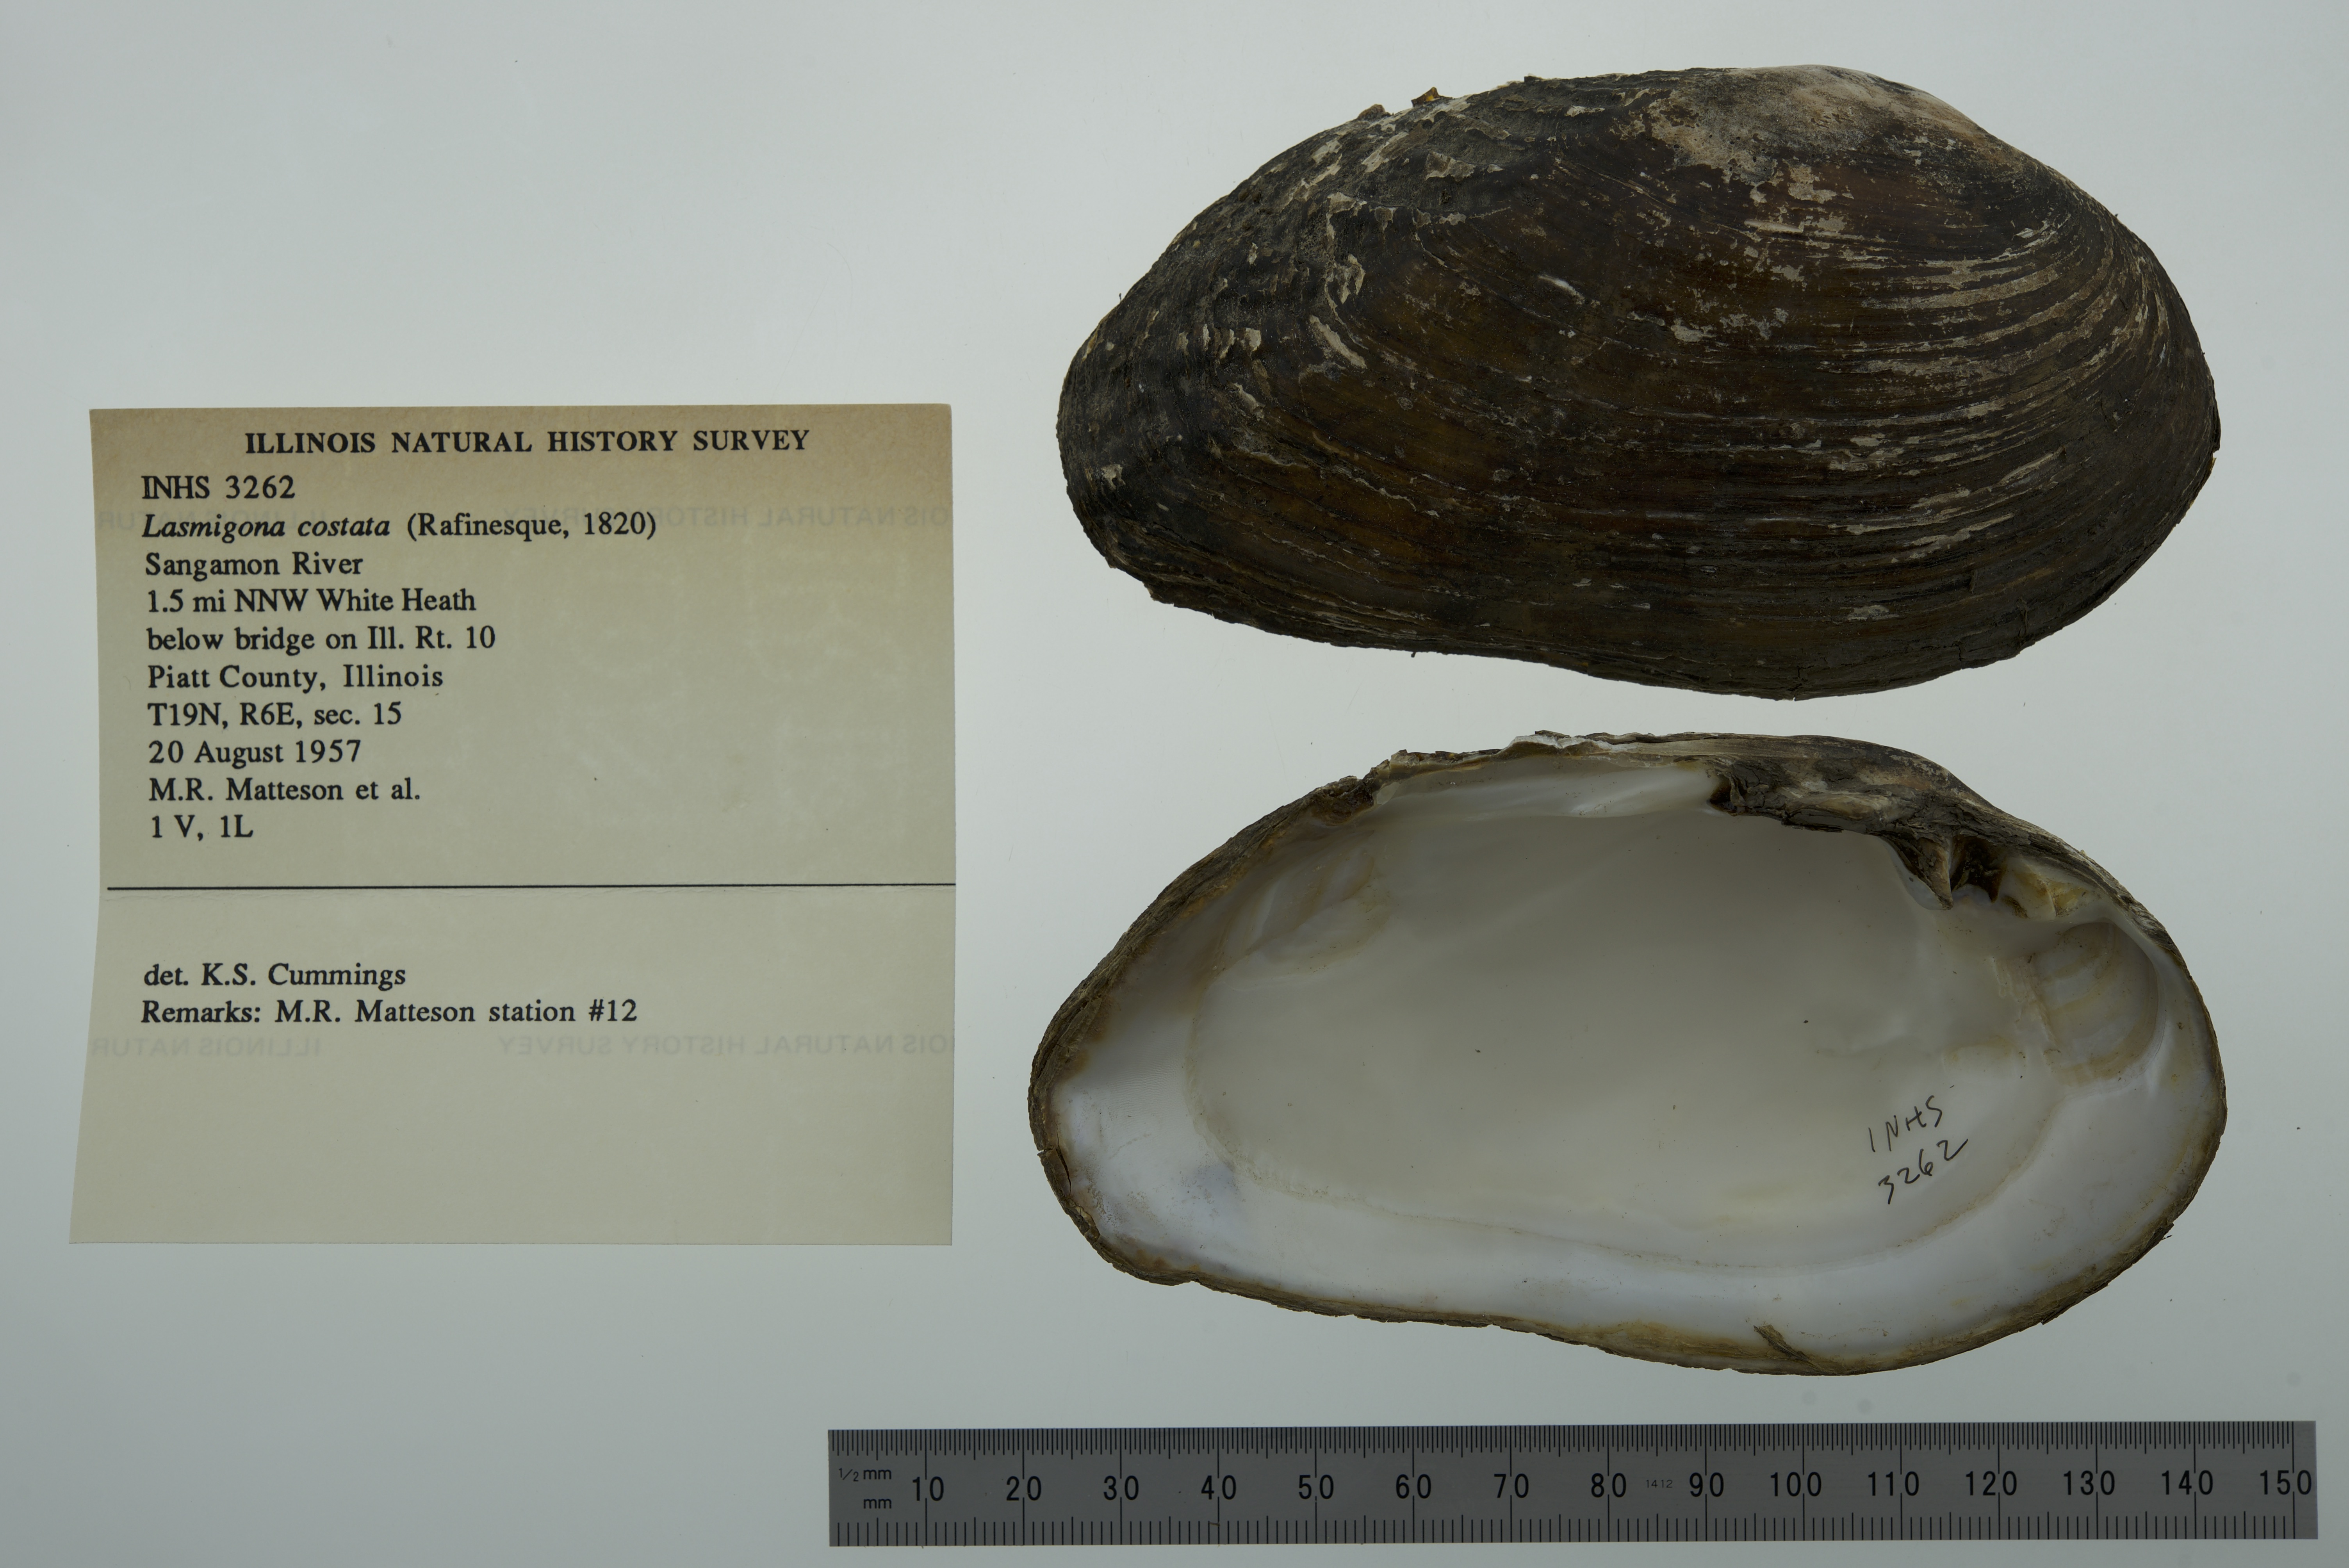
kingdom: Animalia
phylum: Mollusca
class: Bivalvia
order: Unionida
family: Unionidae
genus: Lasmigona
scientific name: Lasmigona costata
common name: Flutedshell
